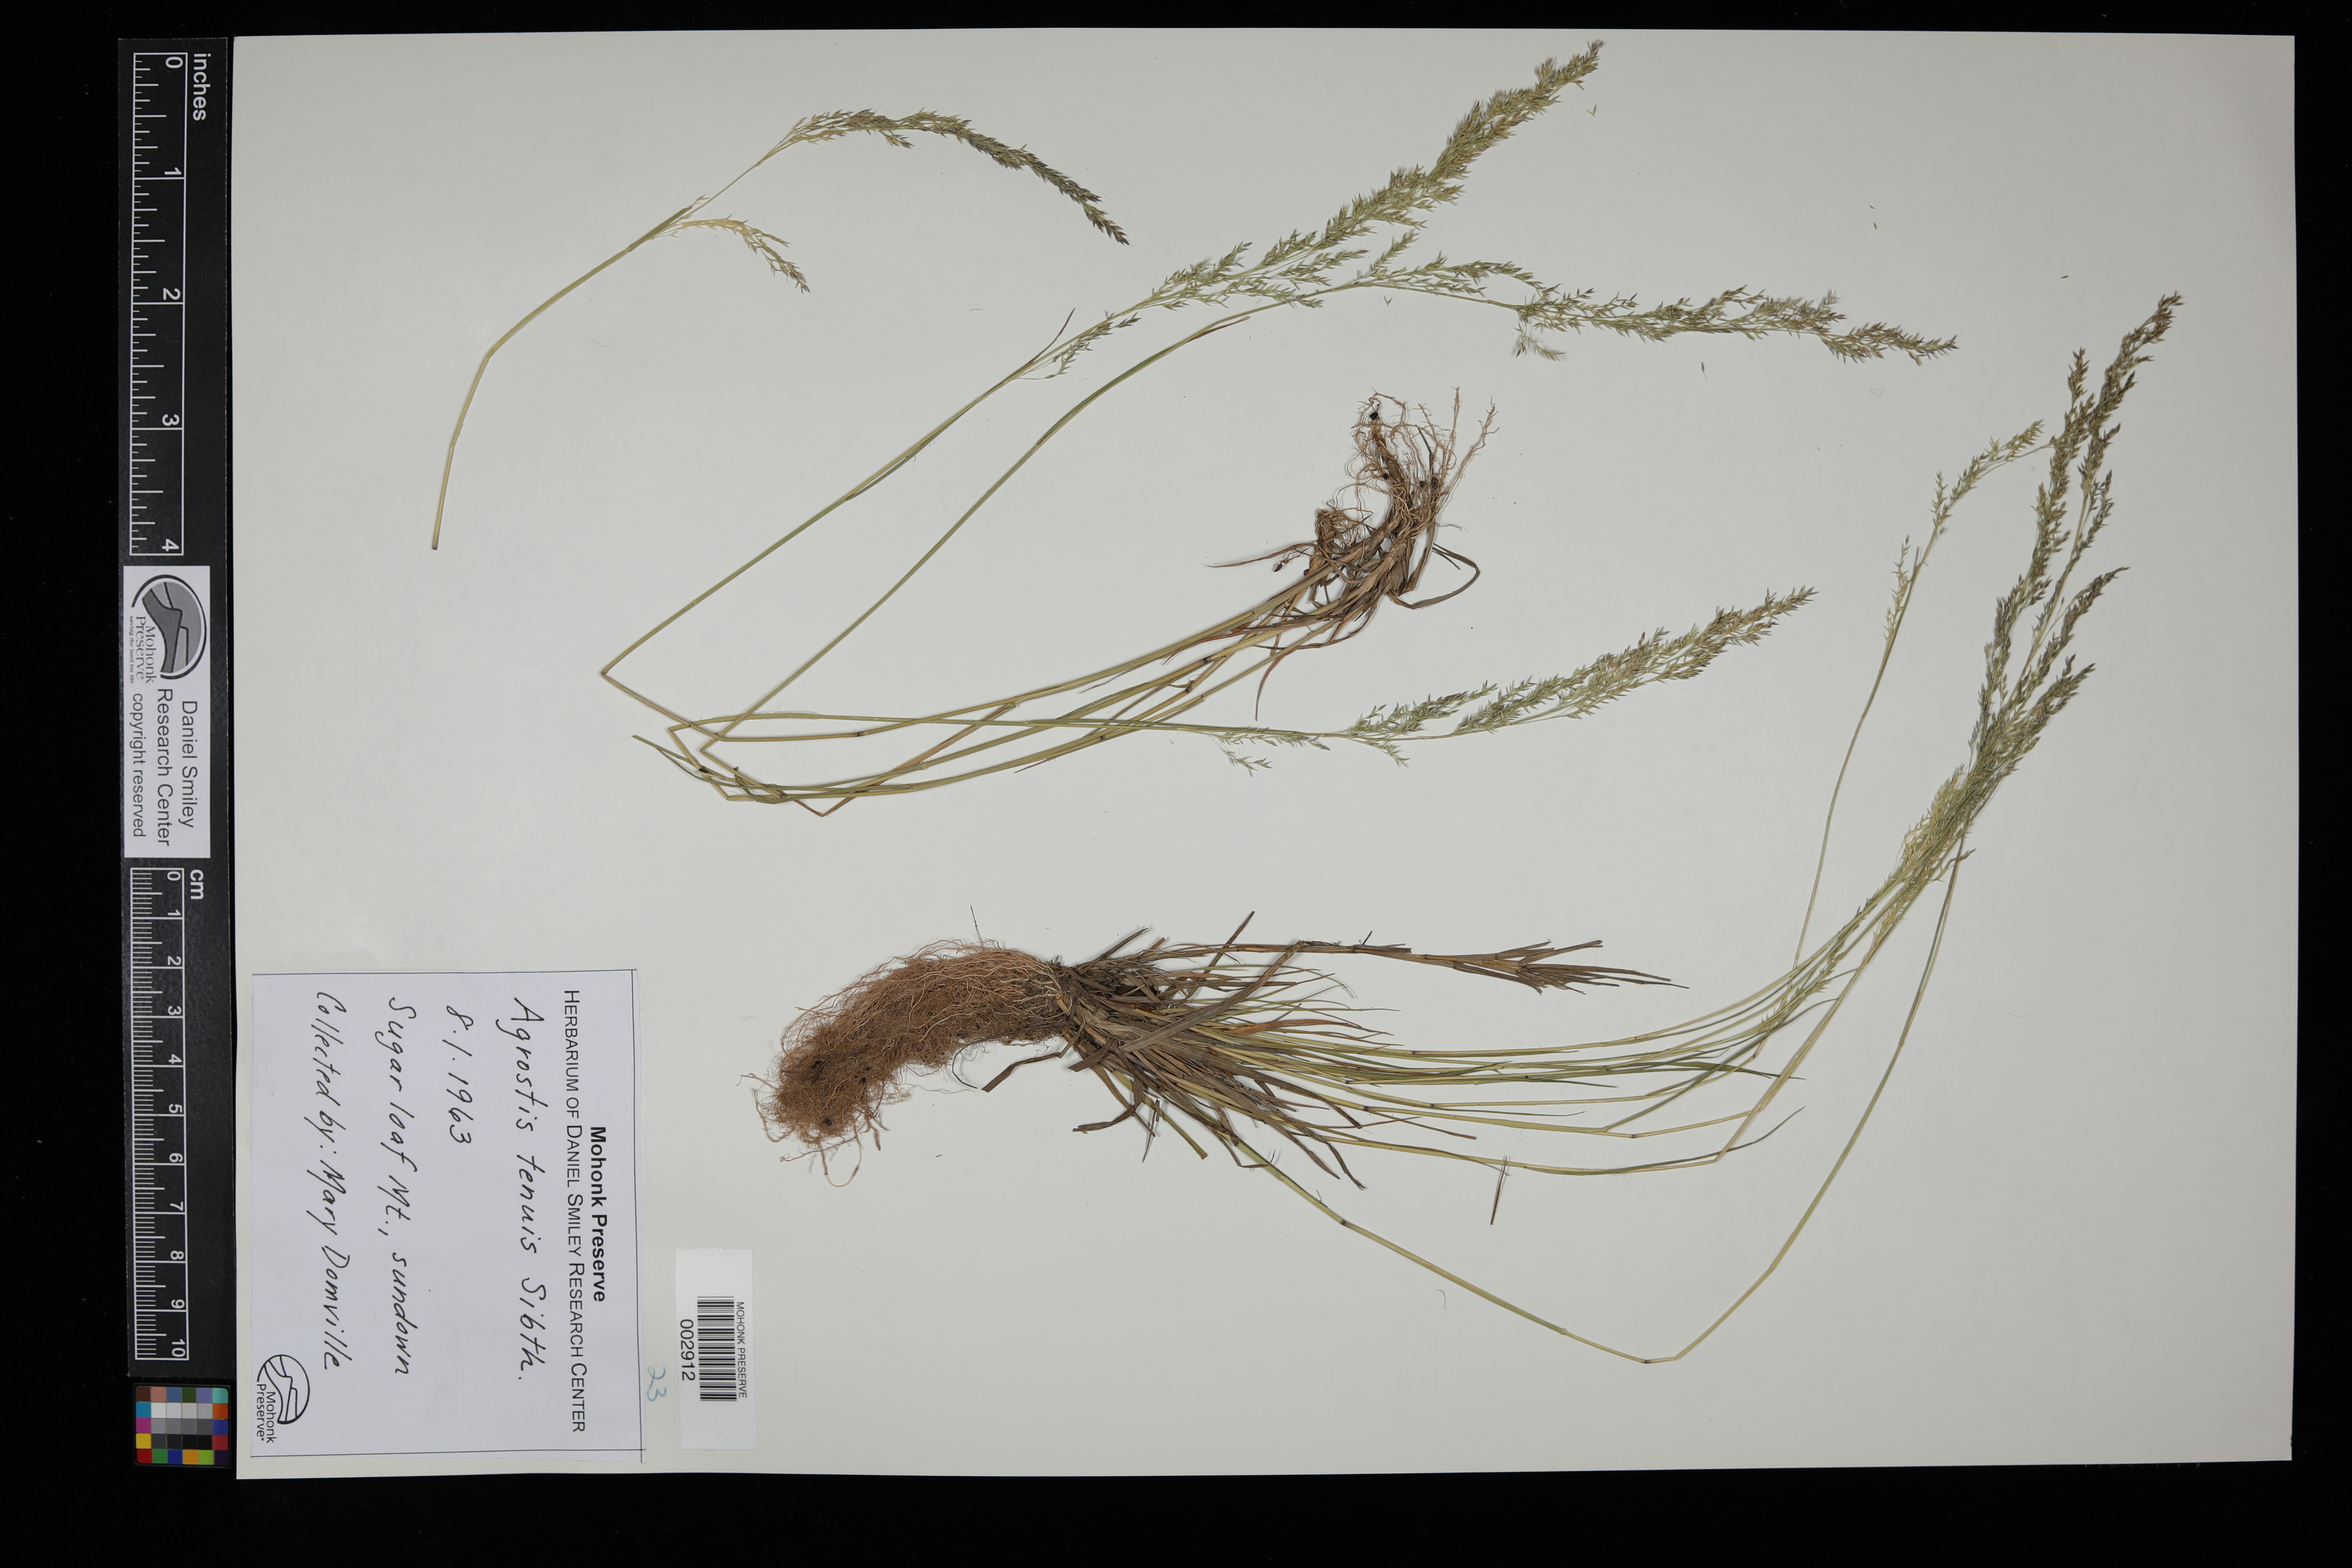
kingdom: Plantae
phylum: Tracheophyta
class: Liliopsida
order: Poales
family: Poaceae
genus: Agrostis
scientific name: Agrostis capillaris
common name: Colonial bentgrass
